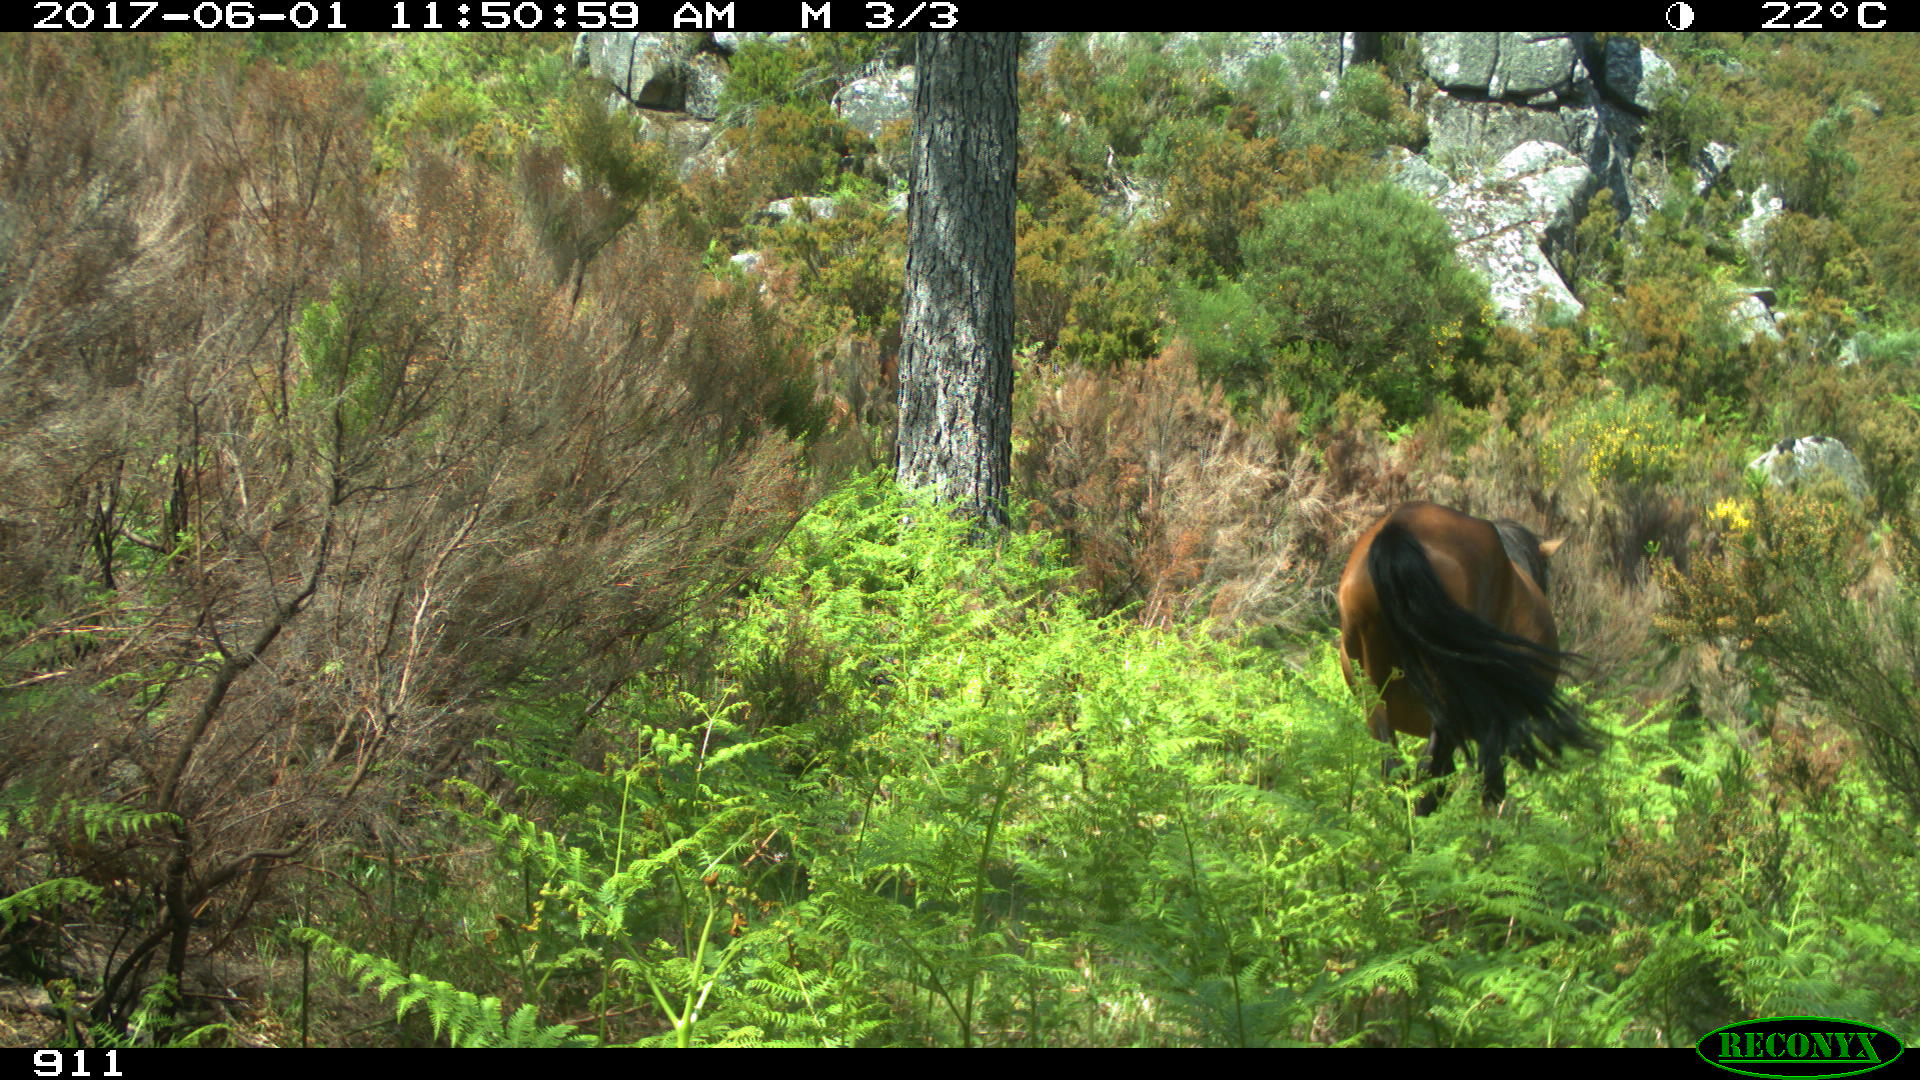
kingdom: Animalia
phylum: Chordata
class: Mammalia
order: Perissodactyla
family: Equidae
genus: Equus
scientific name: Equus caballus
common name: Horse
